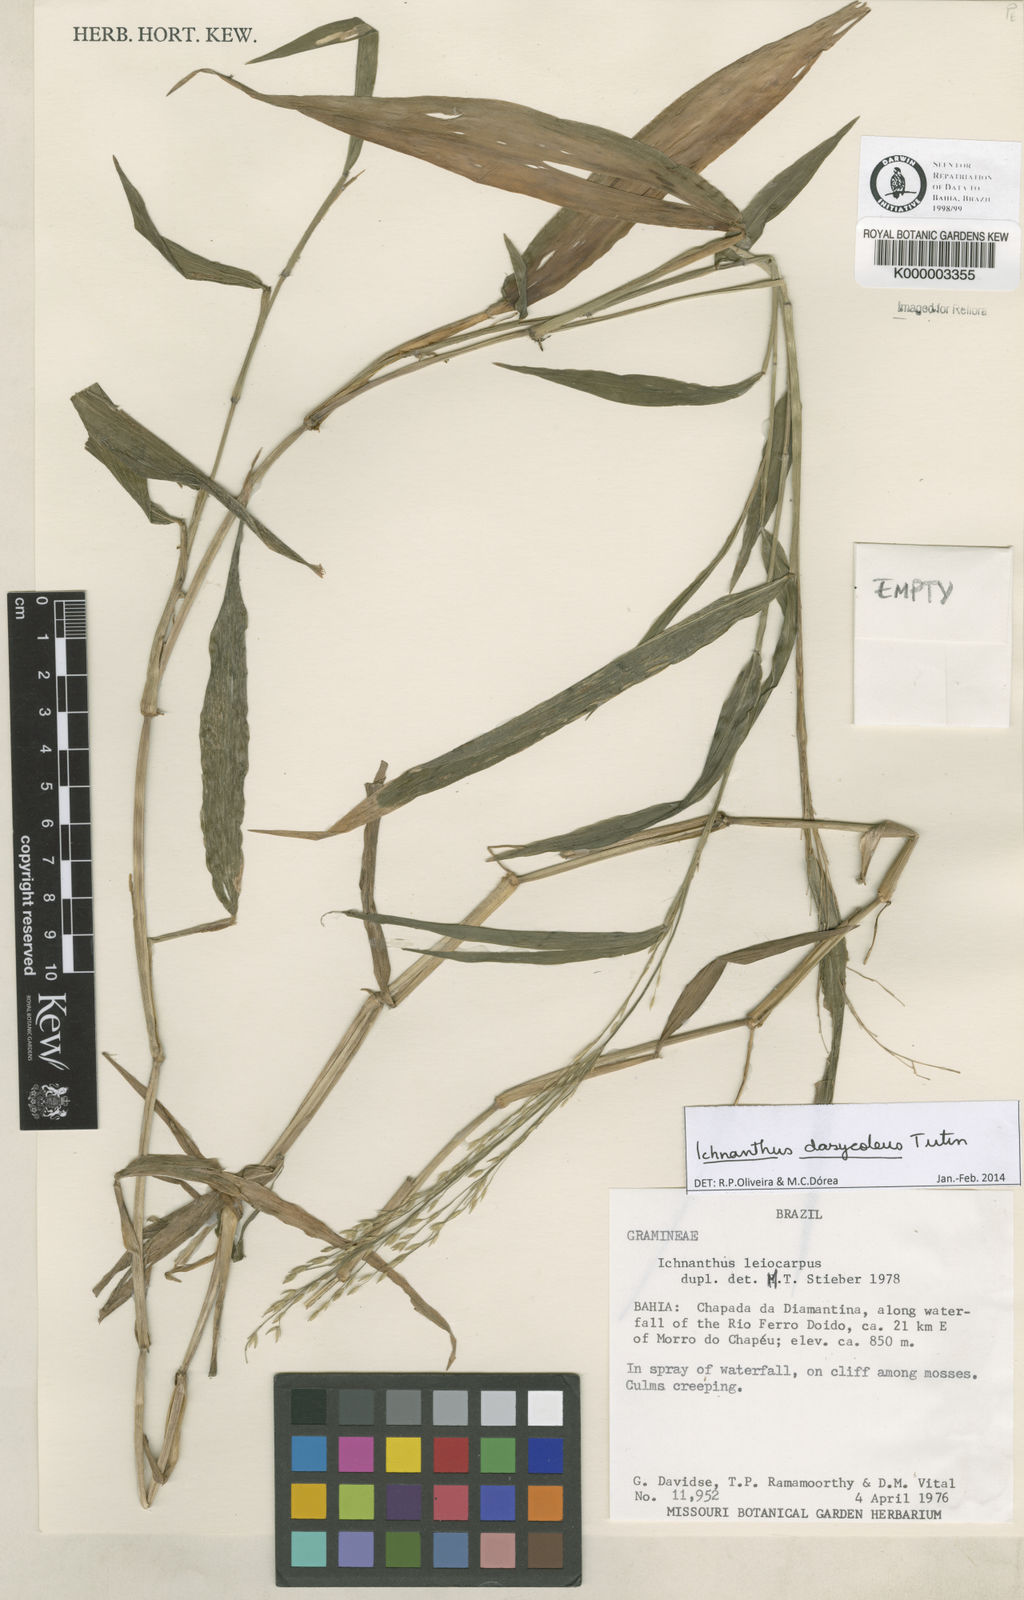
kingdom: Plantae
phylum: Tracheophyta
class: Liliopsida
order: Poales
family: Poaceae
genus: Ichnanthus
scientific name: Ichnanthus leiocarpus
